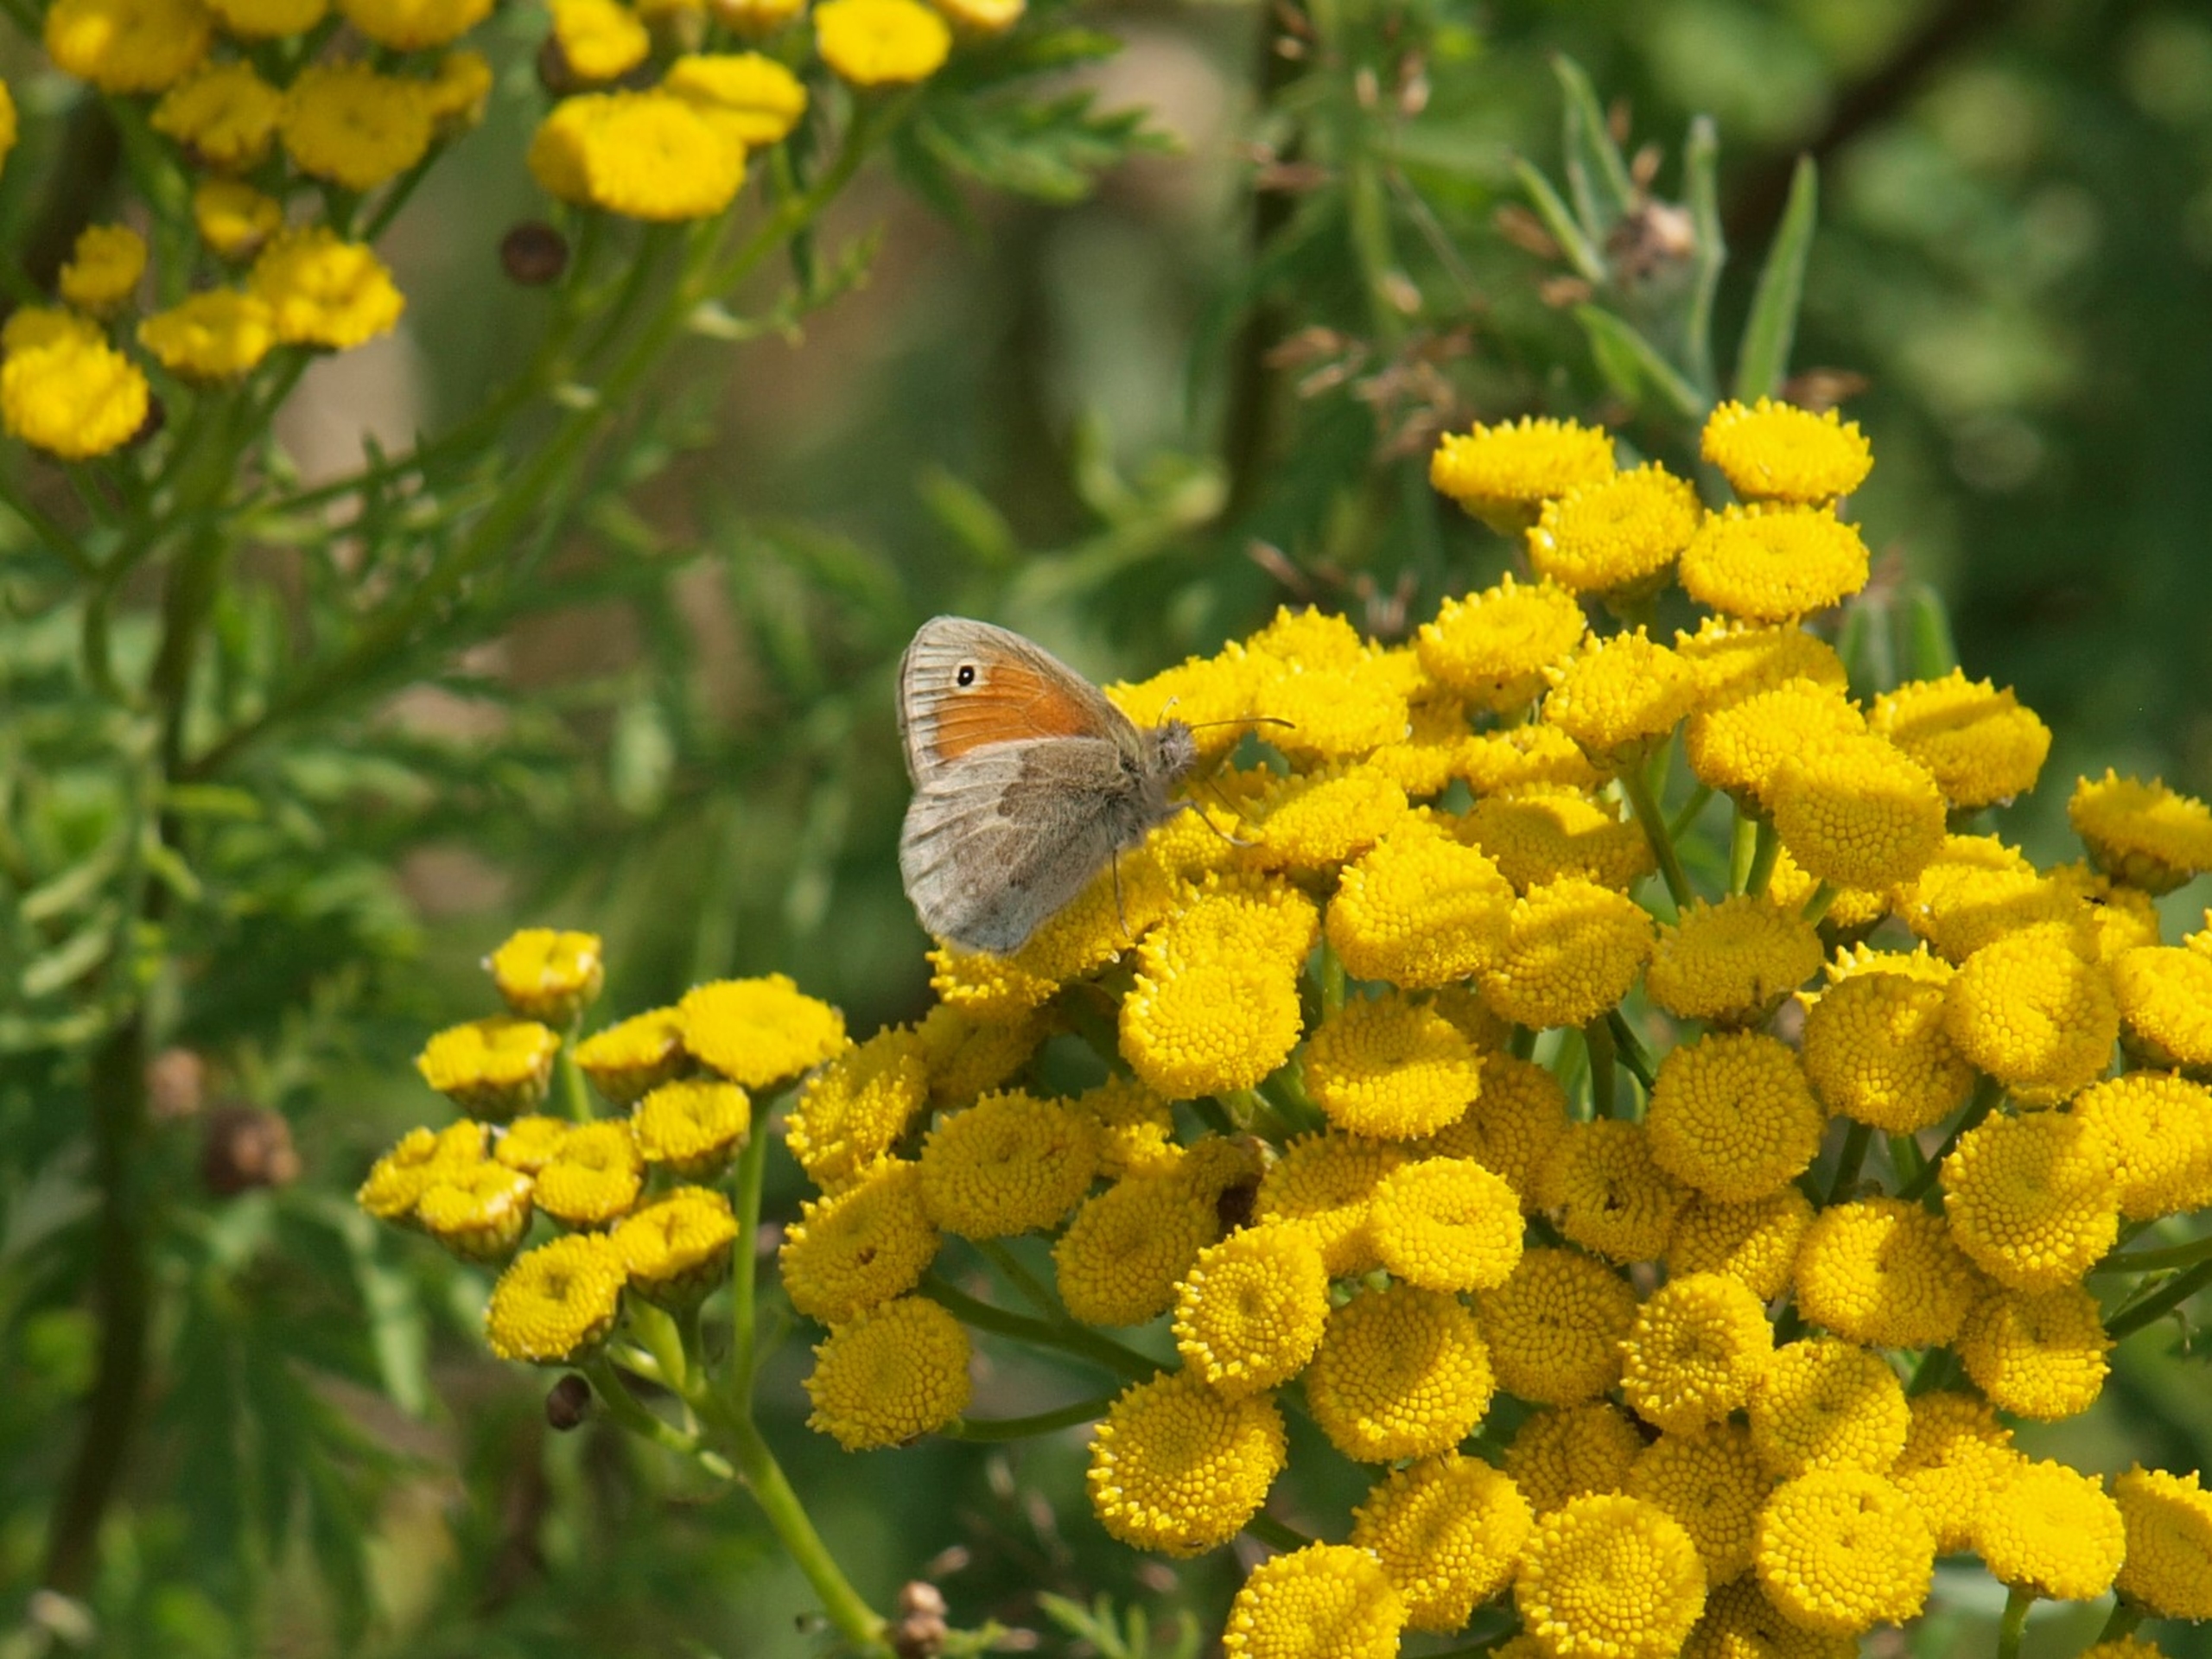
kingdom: Animalia
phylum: Arthropoda
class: Insecta
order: Lepidoptera
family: Nymphalidae
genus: Coenonympha
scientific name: Coenonympha pamphilus
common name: Okkergul randøje
